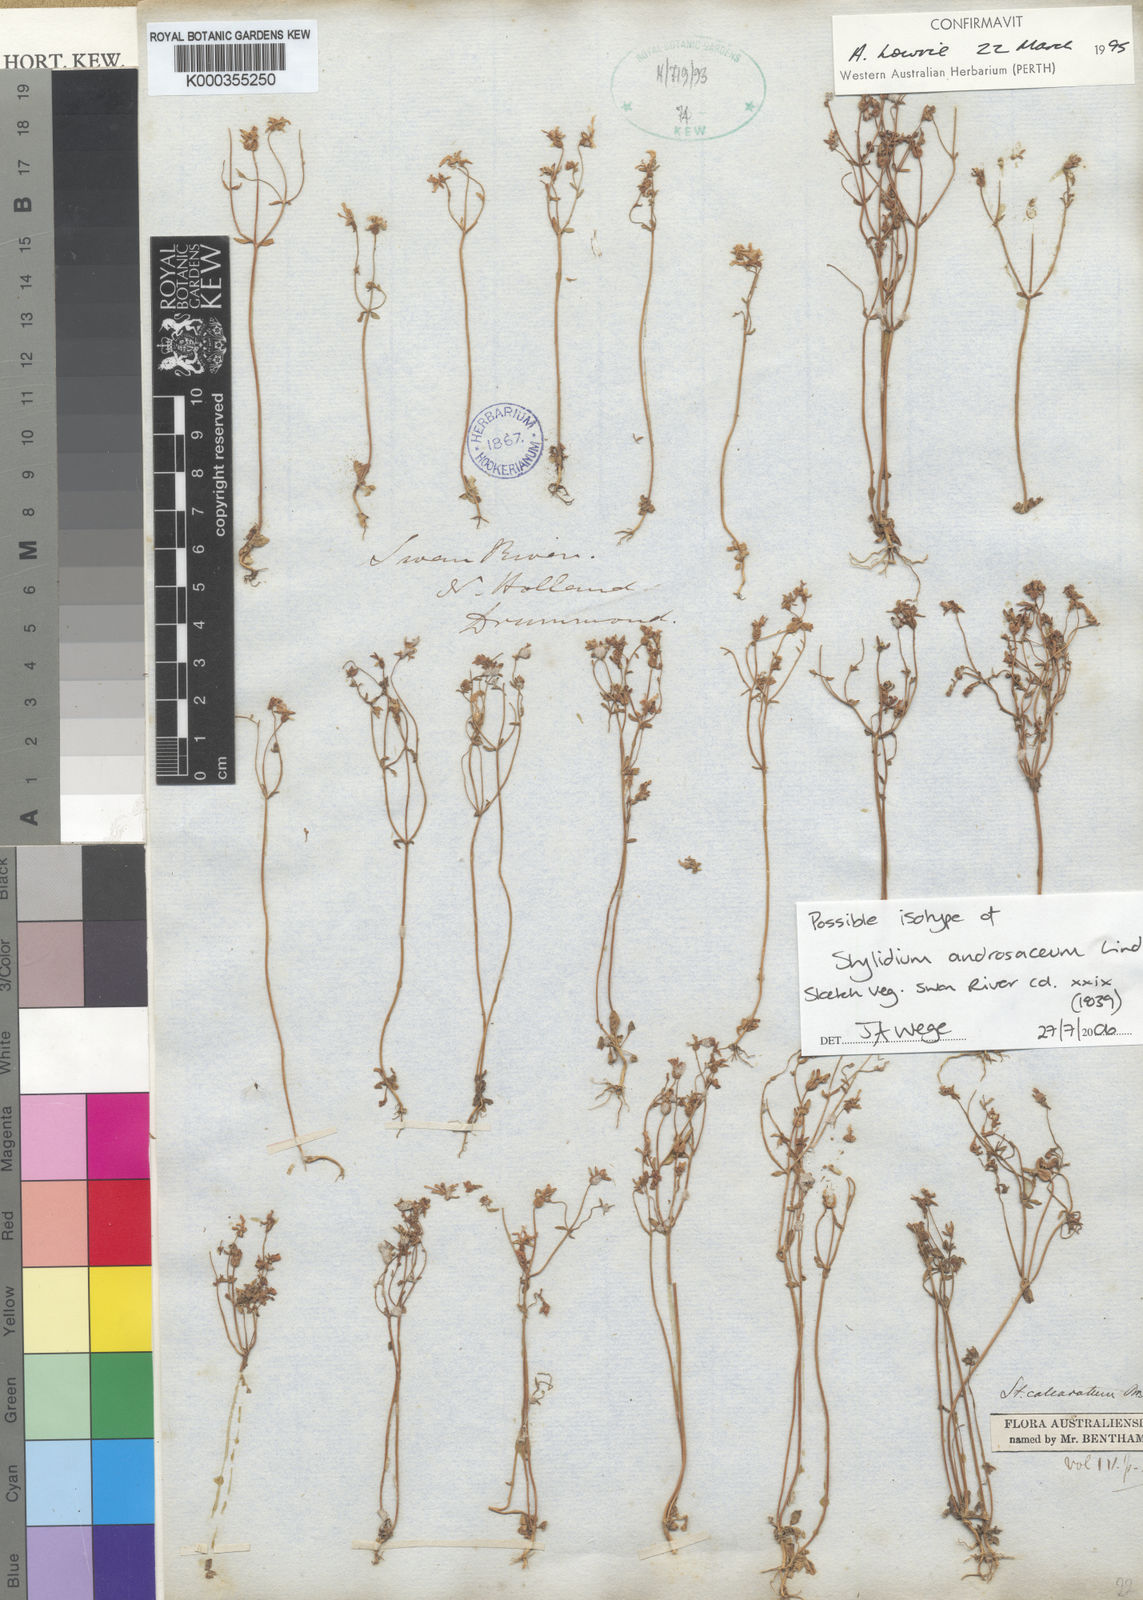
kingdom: Plantae
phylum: Tracheophyta
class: Magnoliopsida
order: Asterales
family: Stylidiaceae
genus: Stylidium
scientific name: Stylidium androsaceum
